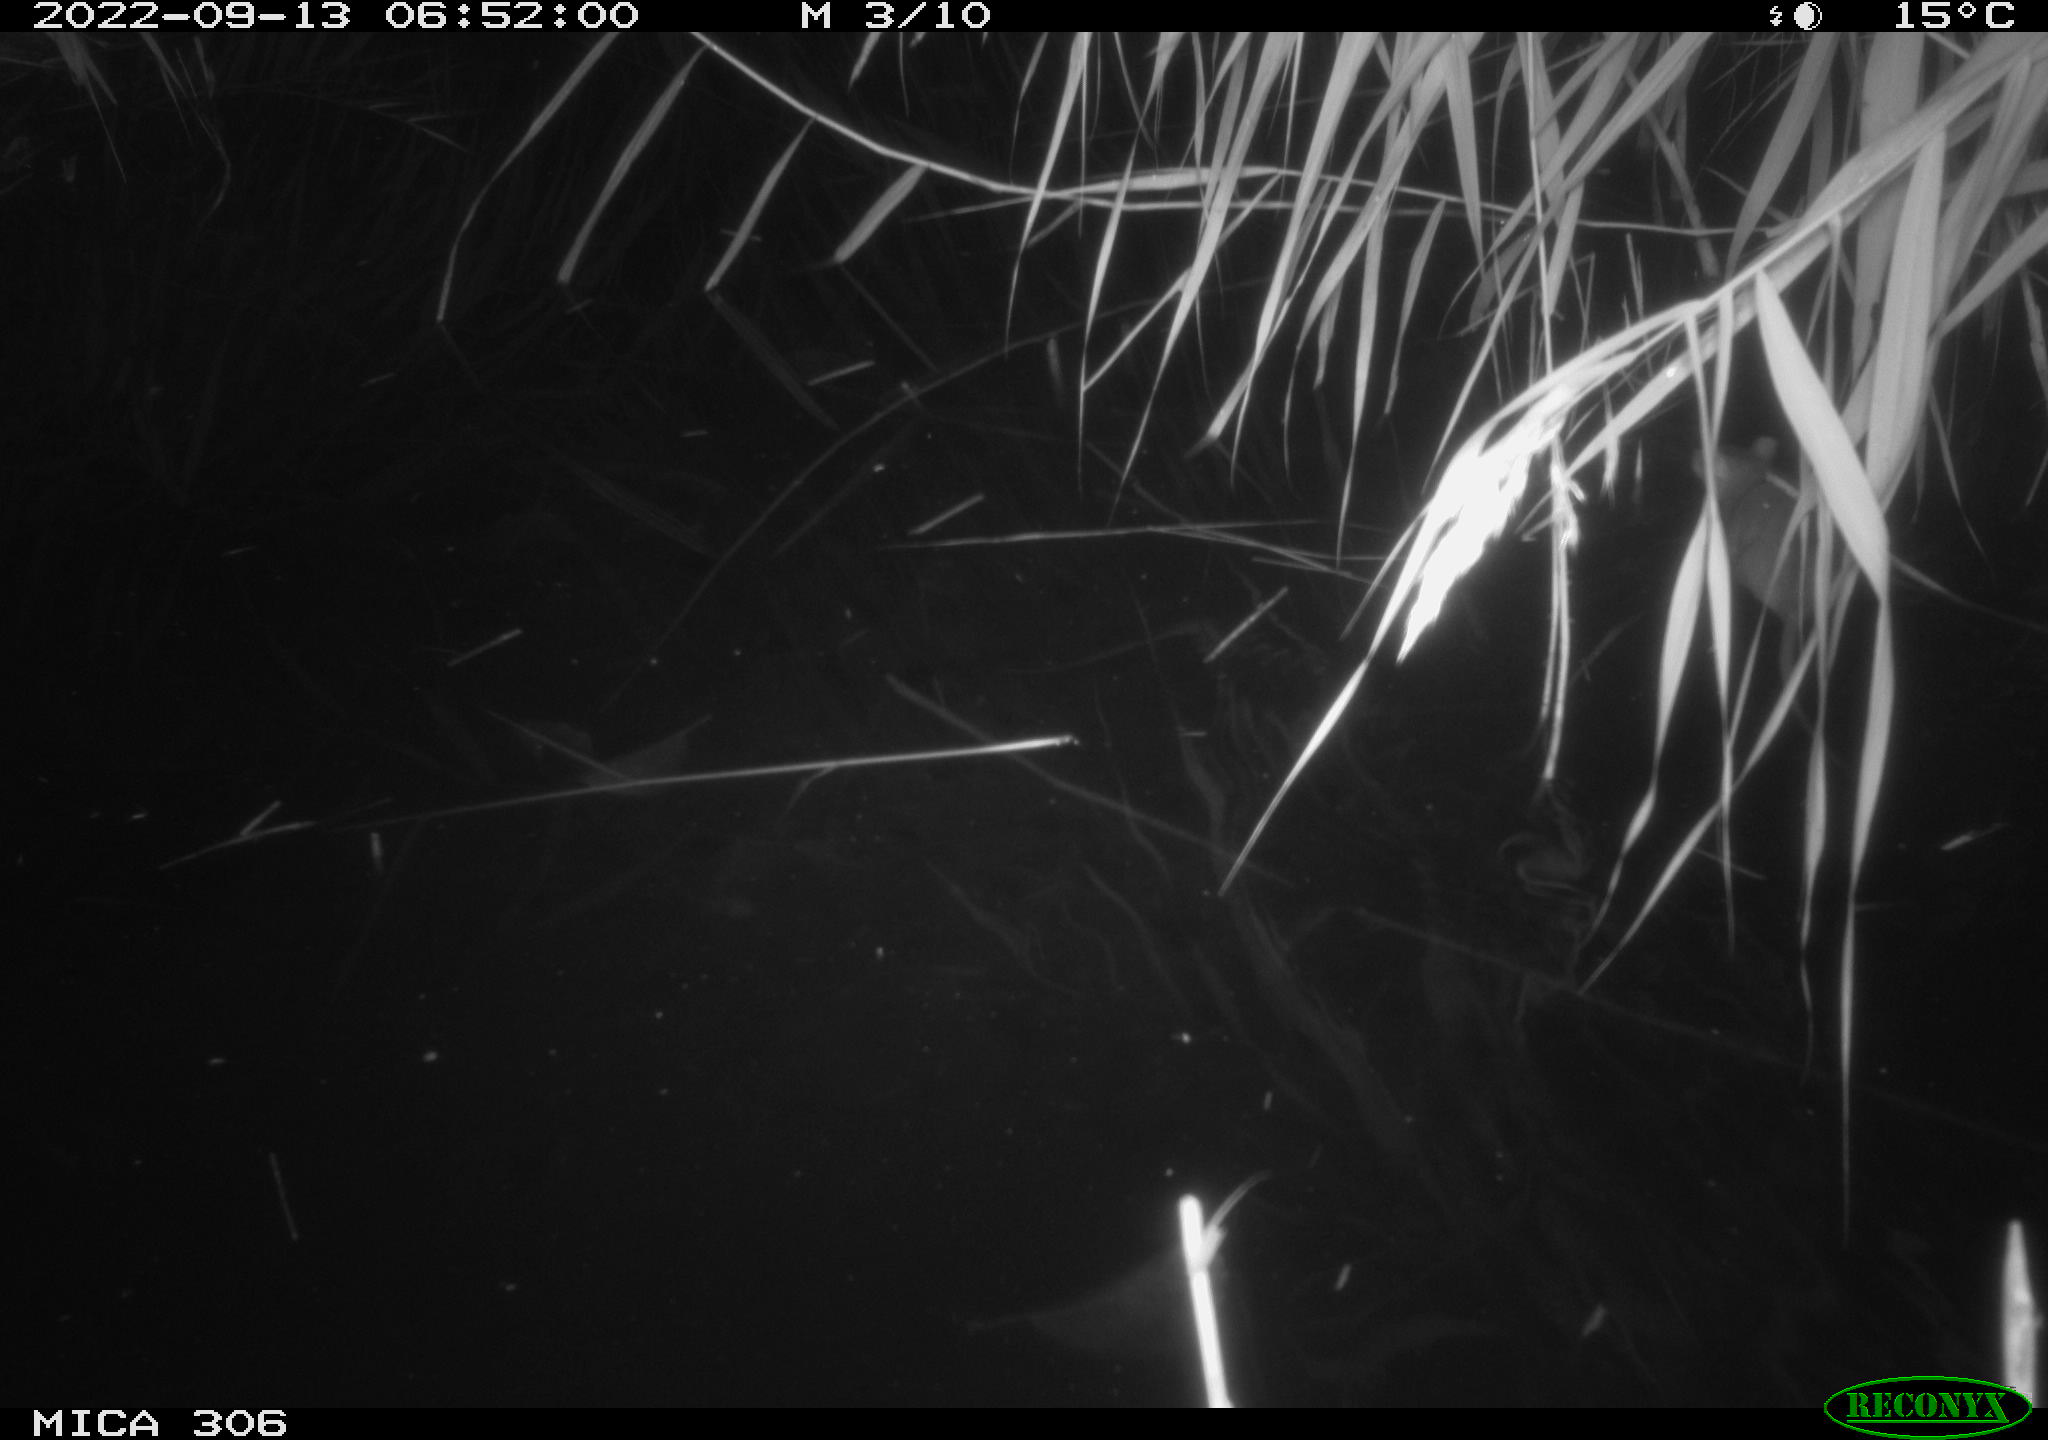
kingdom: Animalia
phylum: Chordata
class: Mammalia
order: Rodentia
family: Muridae
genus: Rattus
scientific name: Rattus norvegicus
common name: Brown rat
